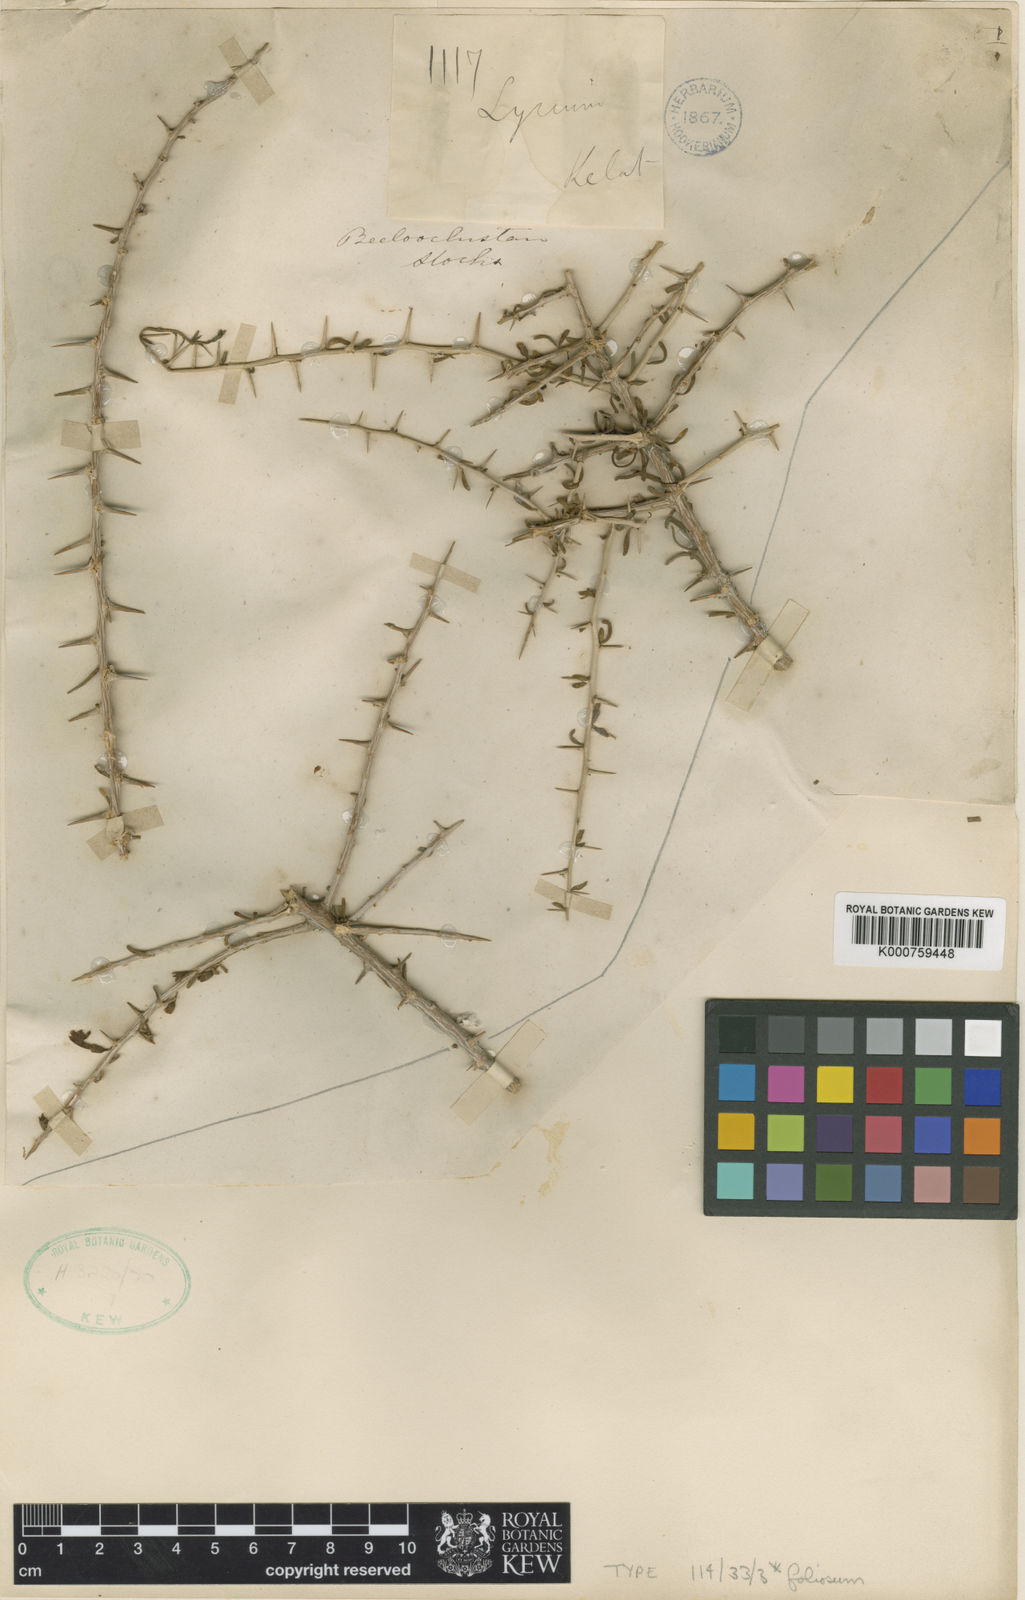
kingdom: Plantae
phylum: Tracheophyta
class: Magnoliopsida
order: Solanales
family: Solanaceae
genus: Lycium
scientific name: Lycium ruthenicum
